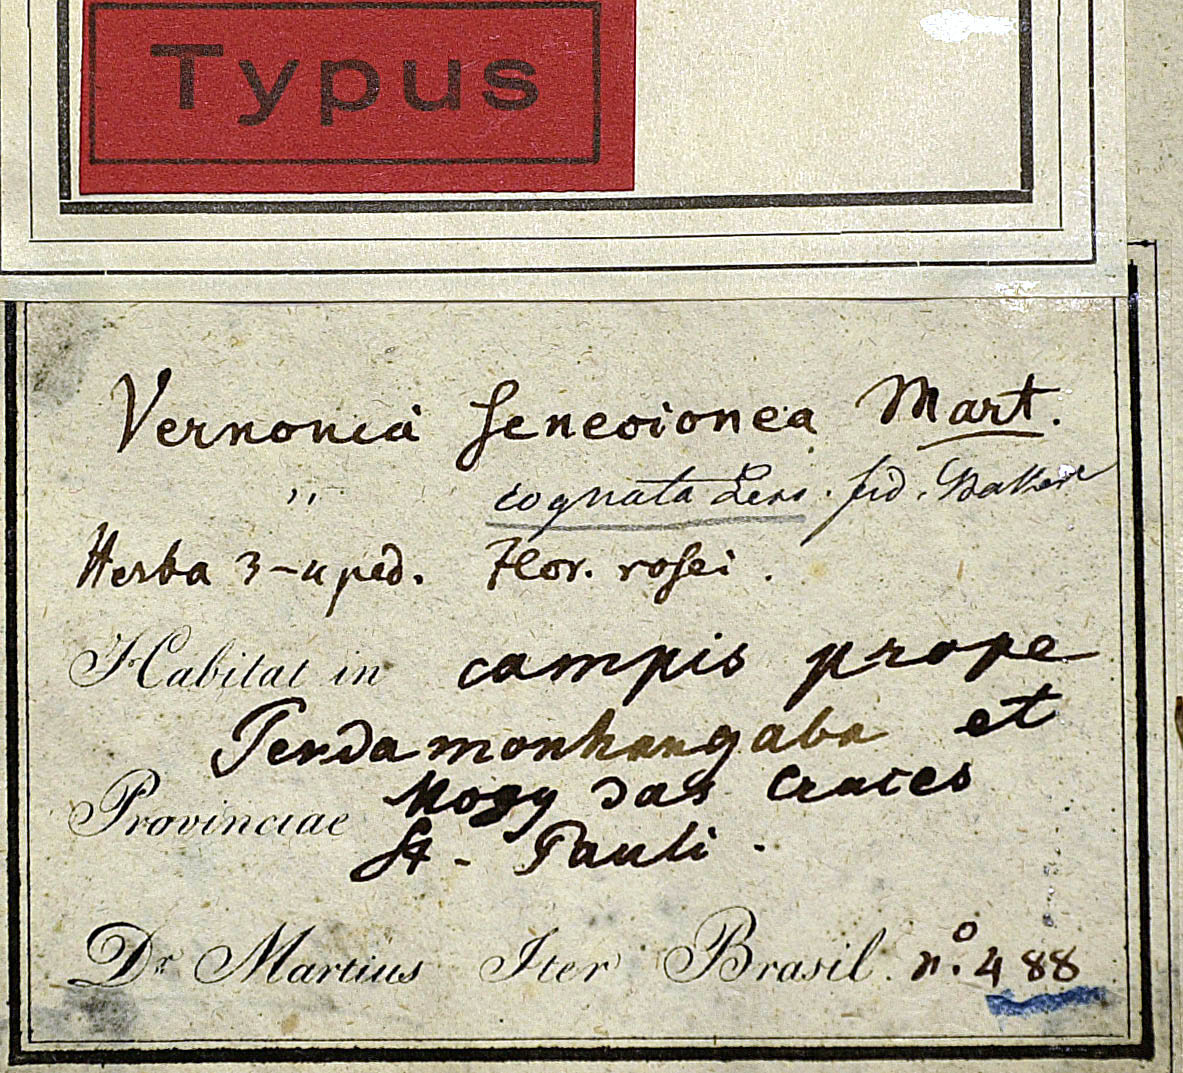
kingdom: Plantae
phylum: Tracheophyta
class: Magnoliopsida
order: Asterales
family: Asteraceae
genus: Chrysolaena
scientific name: Chrysolaena platensis
